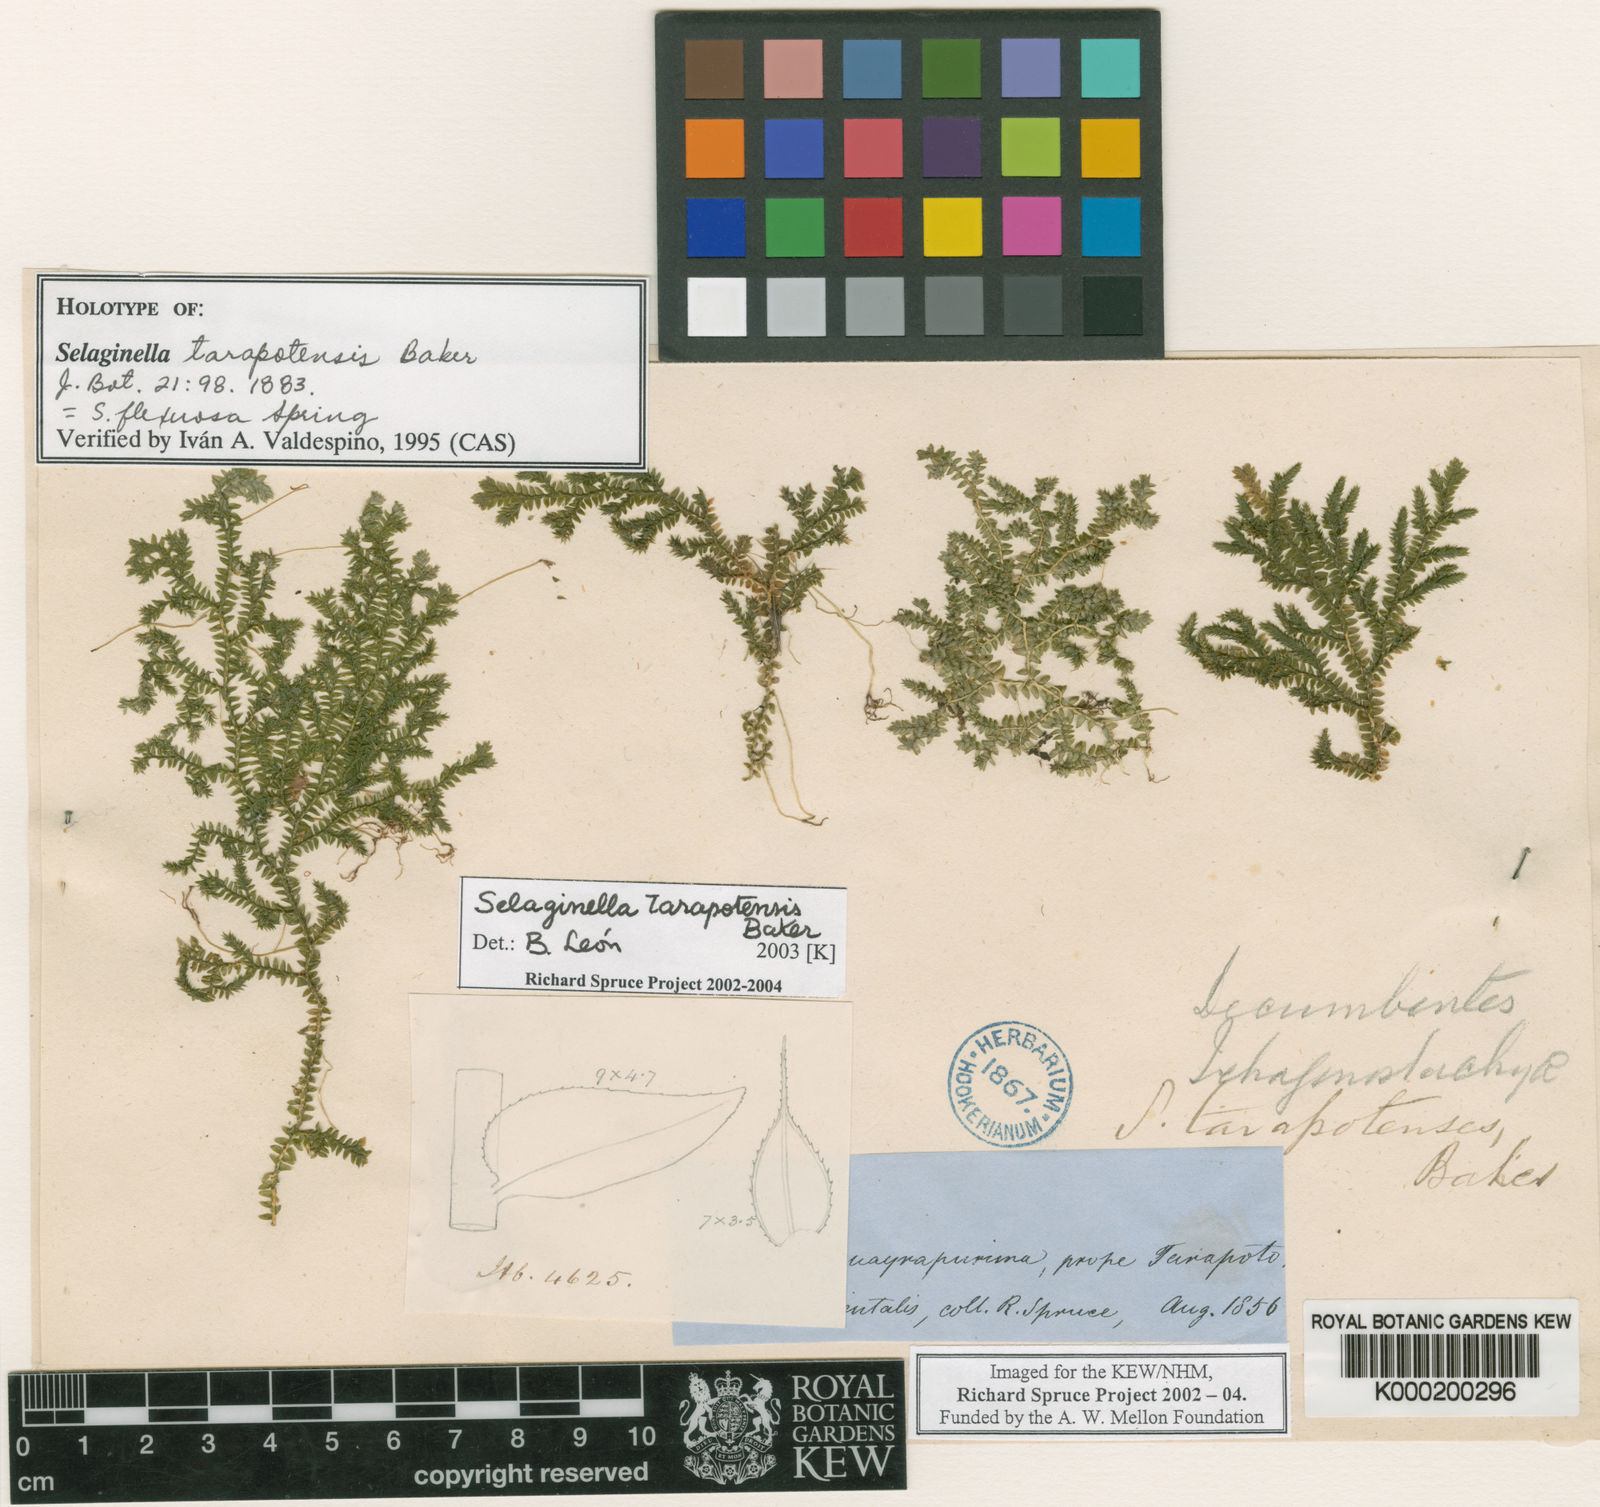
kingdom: Plantae
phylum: Tracheophyta
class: Lycopodiopsida
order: Selaginellales
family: Selaginellaceae
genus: Selaginella
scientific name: Selaginella flexuosa
